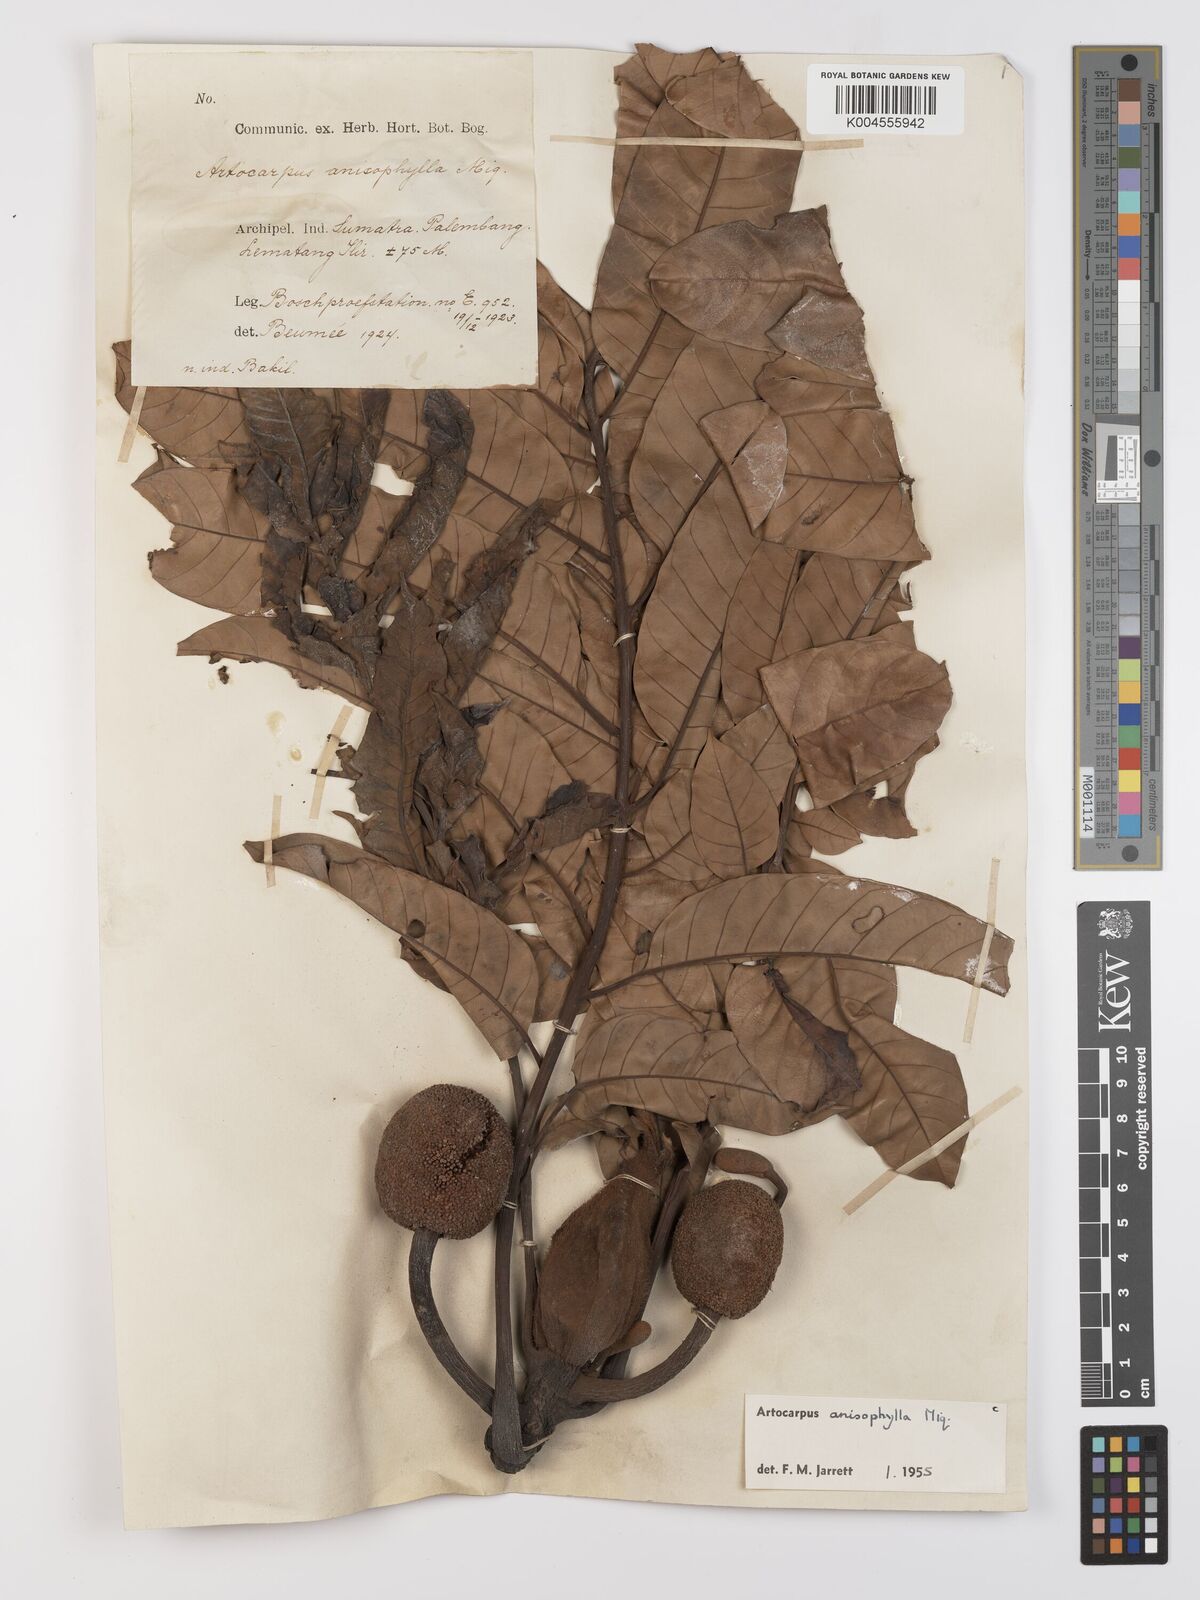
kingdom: Plantae
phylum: Tracheophyta
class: Magnoliopsida
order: Rosales
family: Moraceae
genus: Artocarpus
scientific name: Artocarpus anisophyllus
